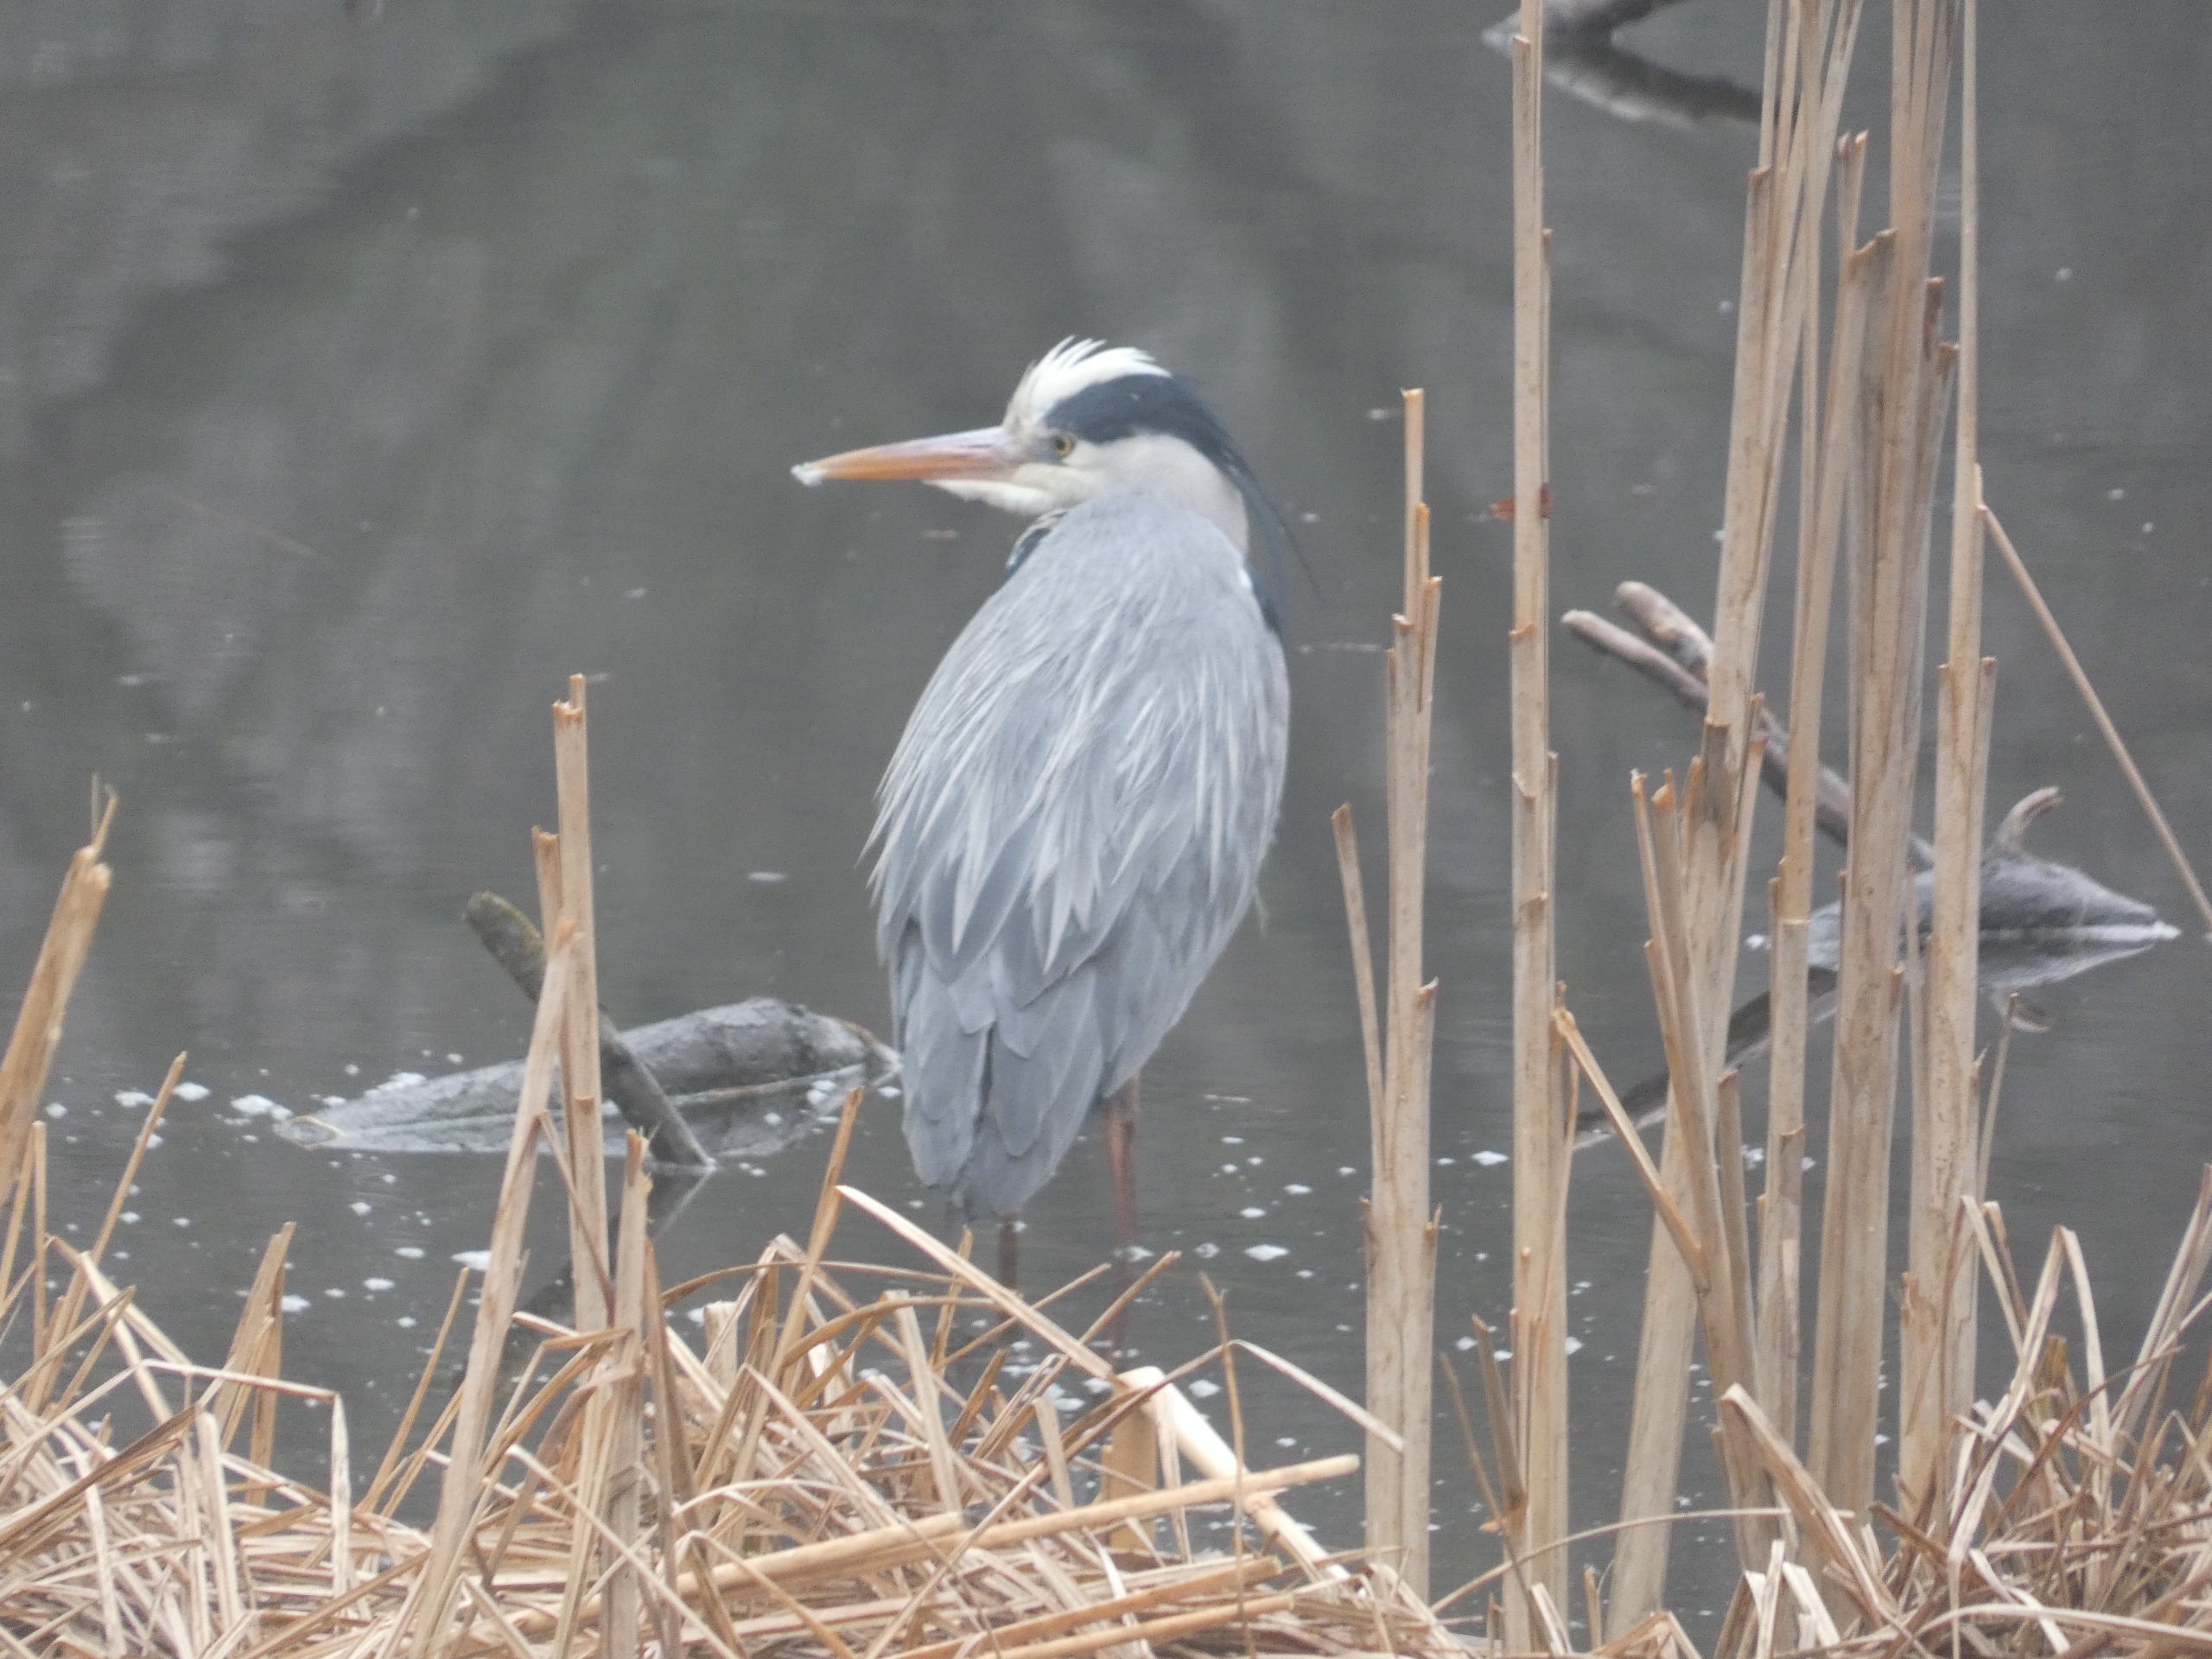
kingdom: Animalia
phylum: Chordata
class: Aves
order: Pelecaniformes
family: Ardeidae
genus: Ardea
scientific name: Ardea cinerea
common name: Fiskehejre
